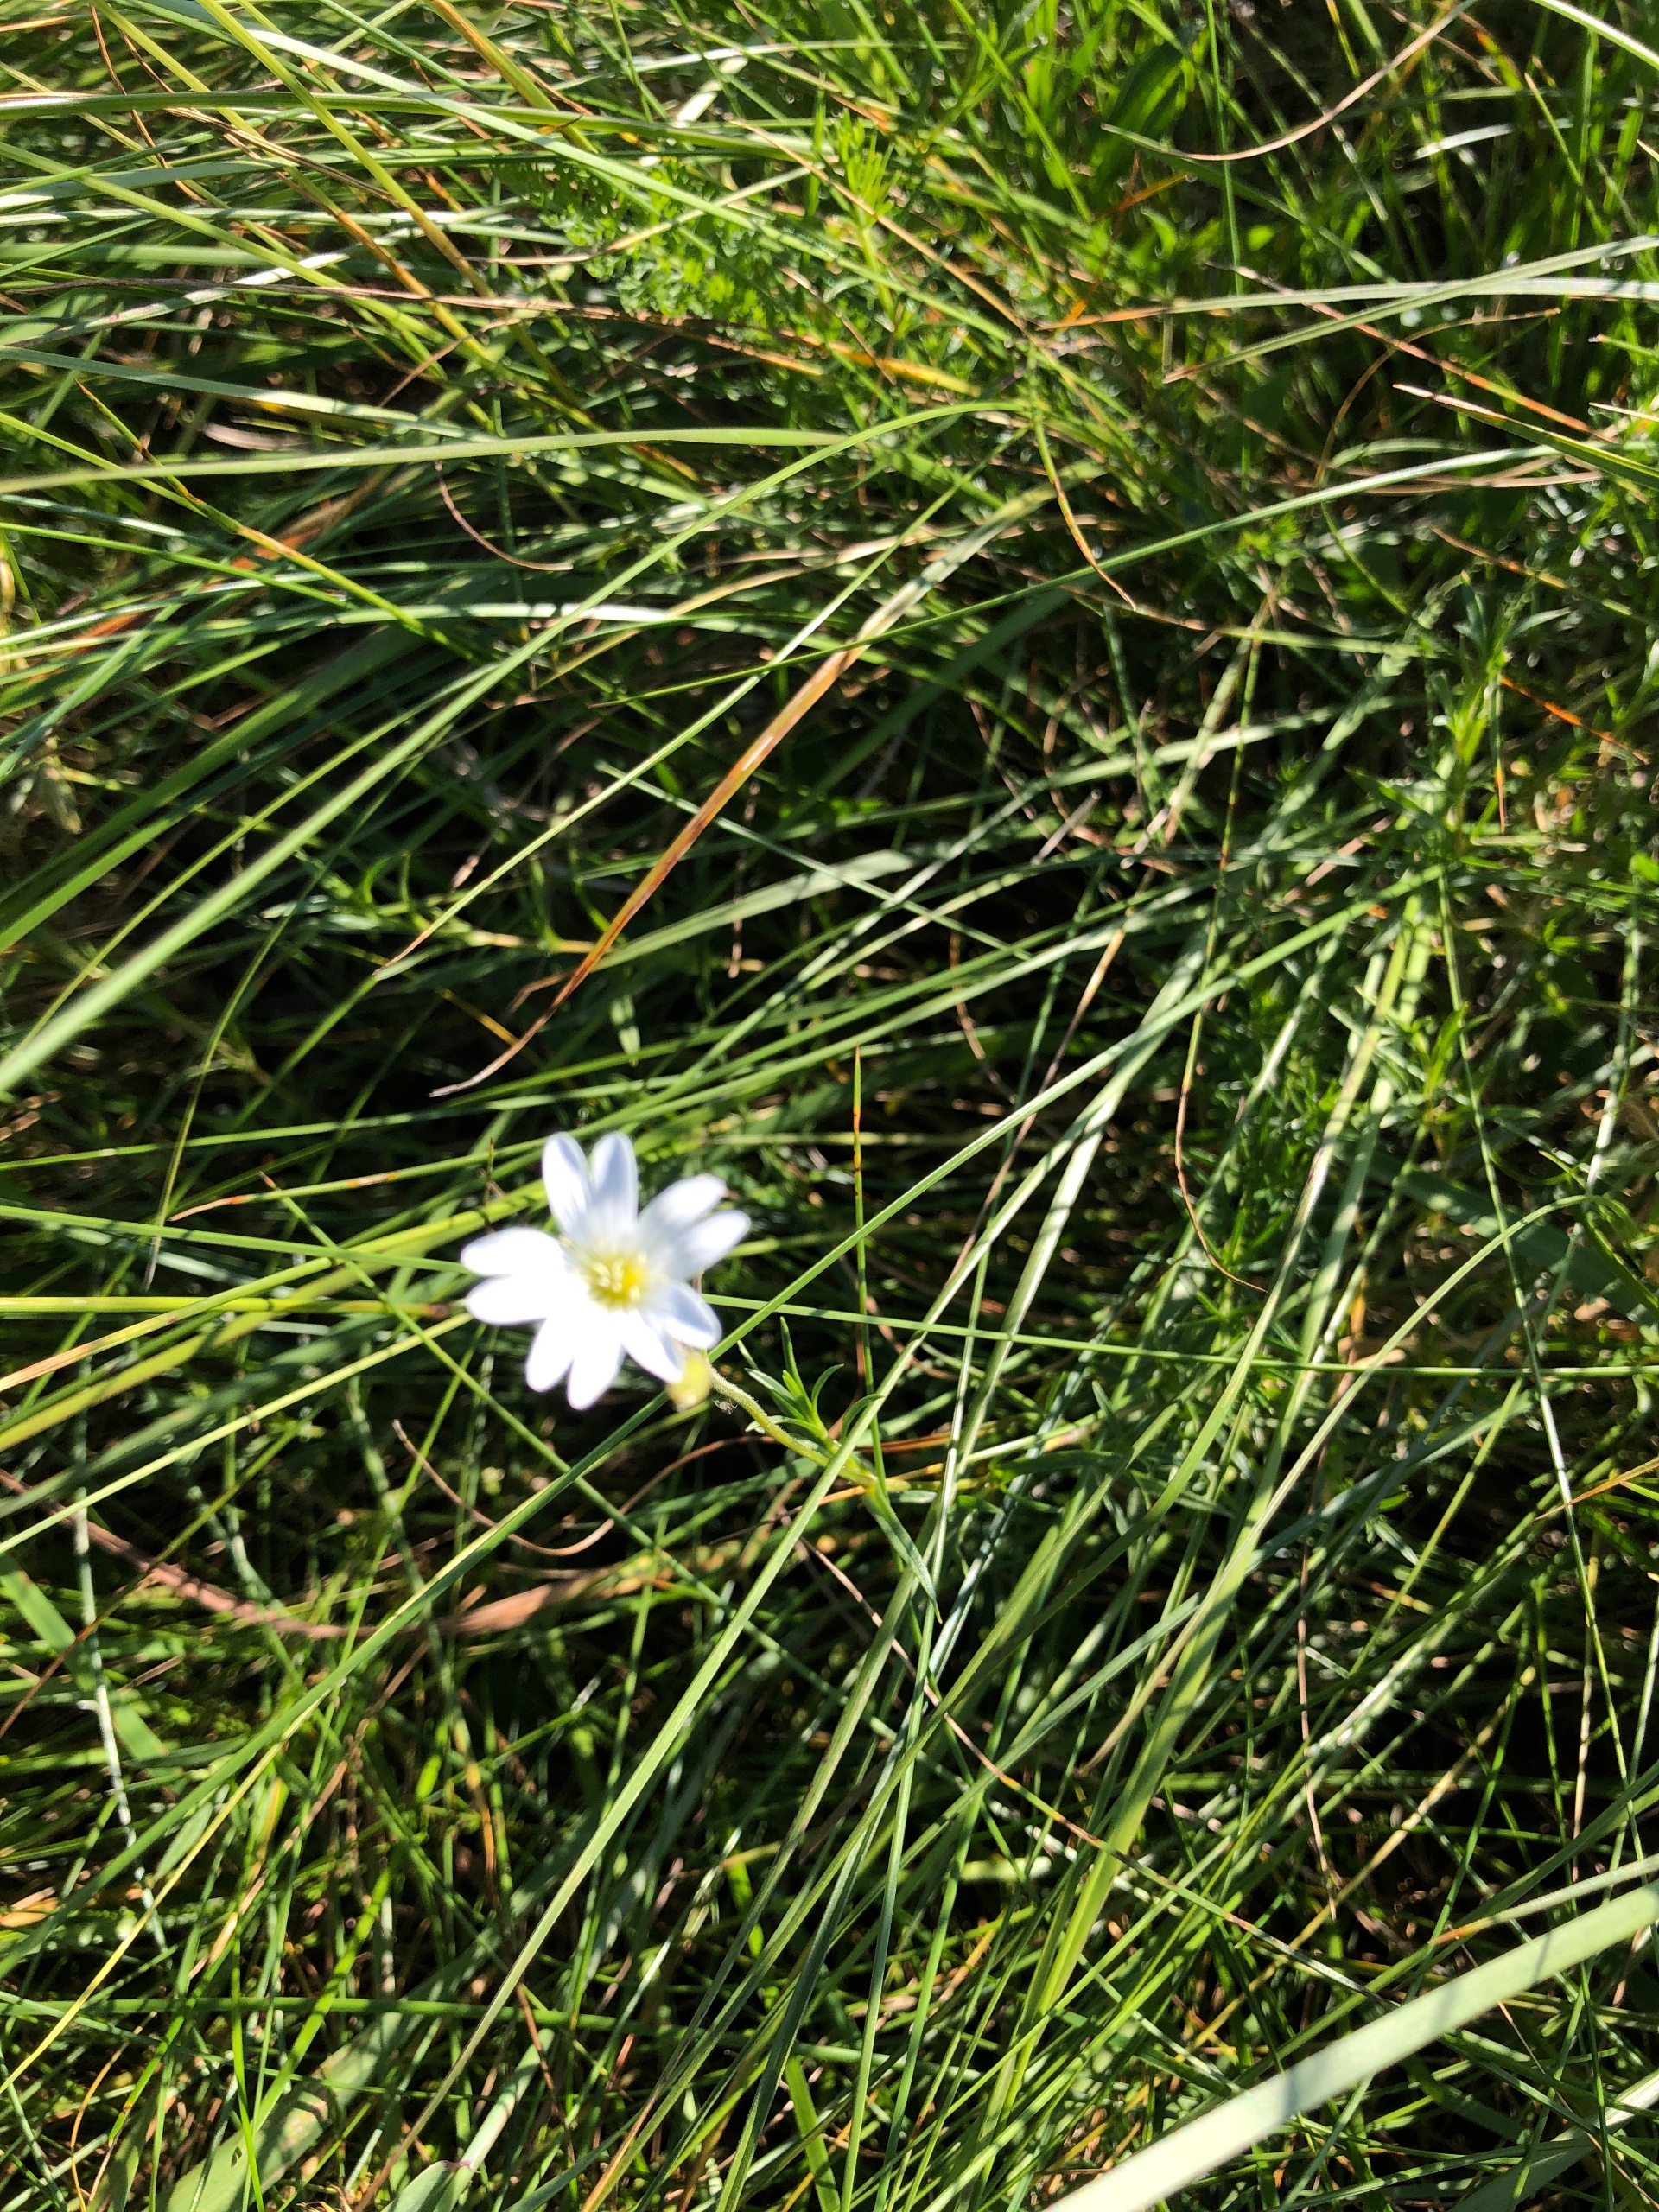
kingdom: Plantae
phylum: Tracheophyta
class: Magnoliopsida
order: Caryophyllales
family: Caryophyllaceae
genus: Cerastium
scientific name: Cerastium arvense
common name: Storblomstret hønsetarm
